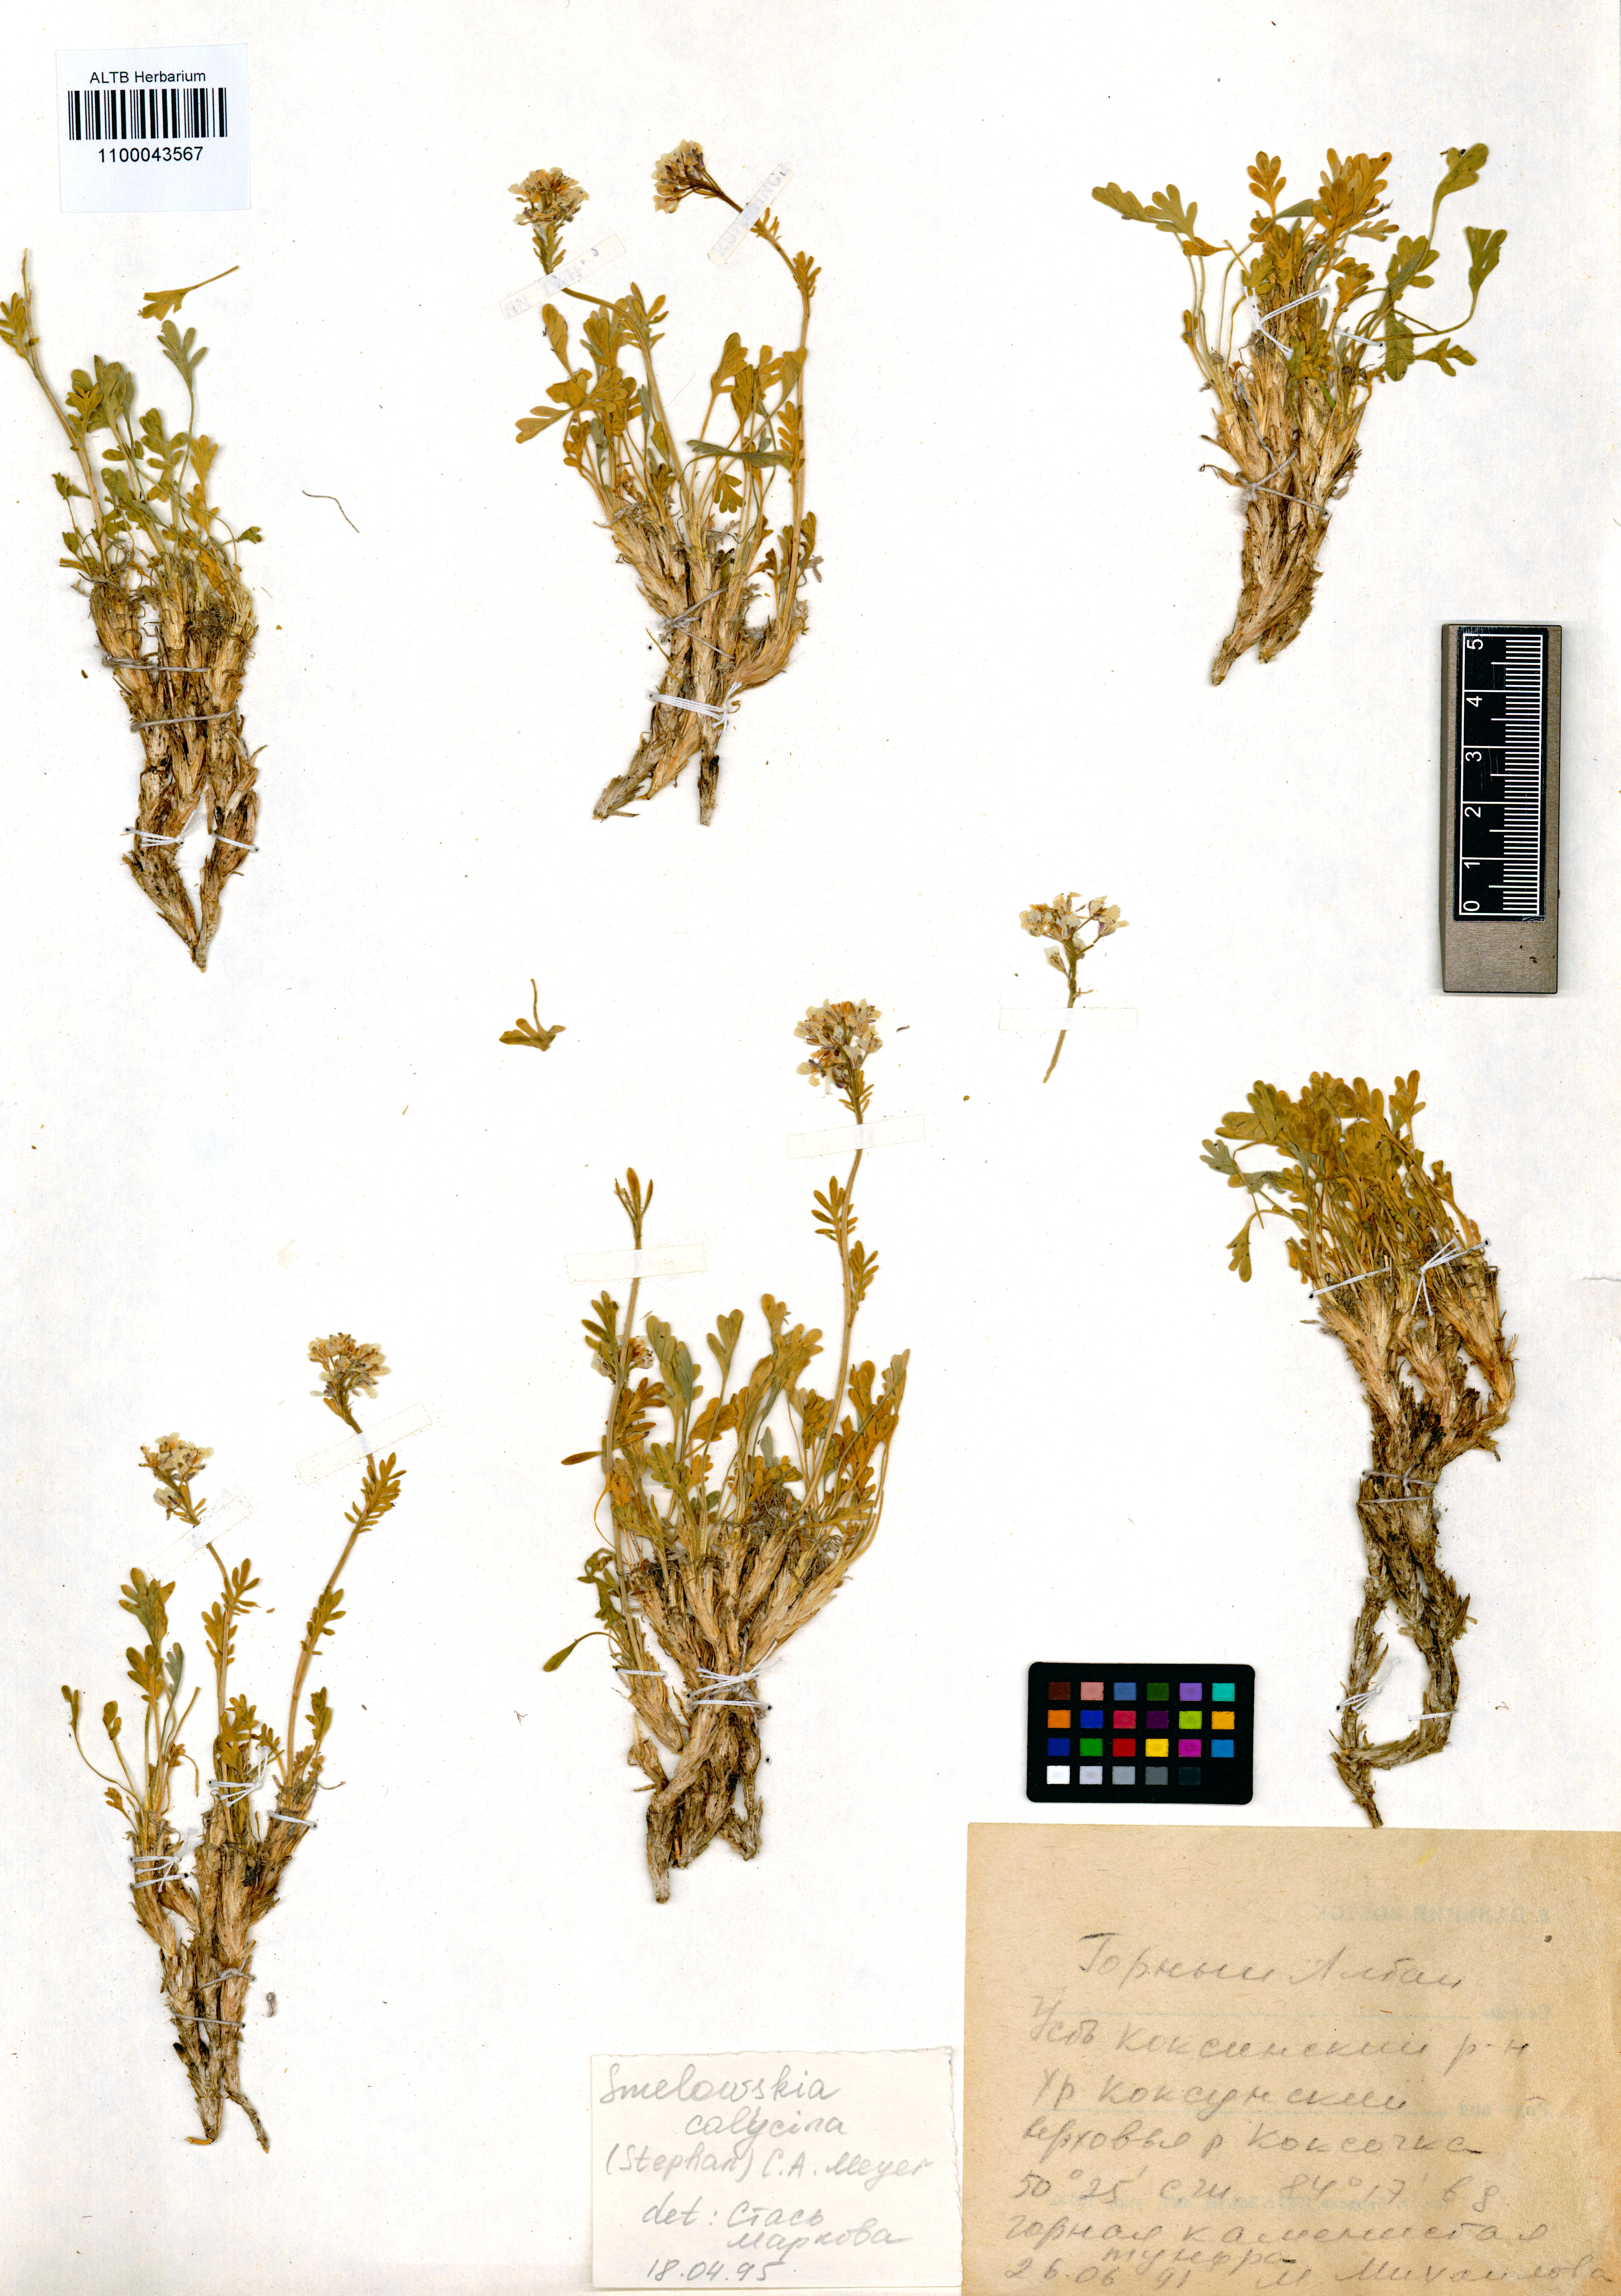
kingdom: Plantae
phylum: Tracheophyta
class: Magnoliopsida
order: Brassicales
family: Brassicaceae
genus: Smelowskia
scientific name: Smelowskia calycina
